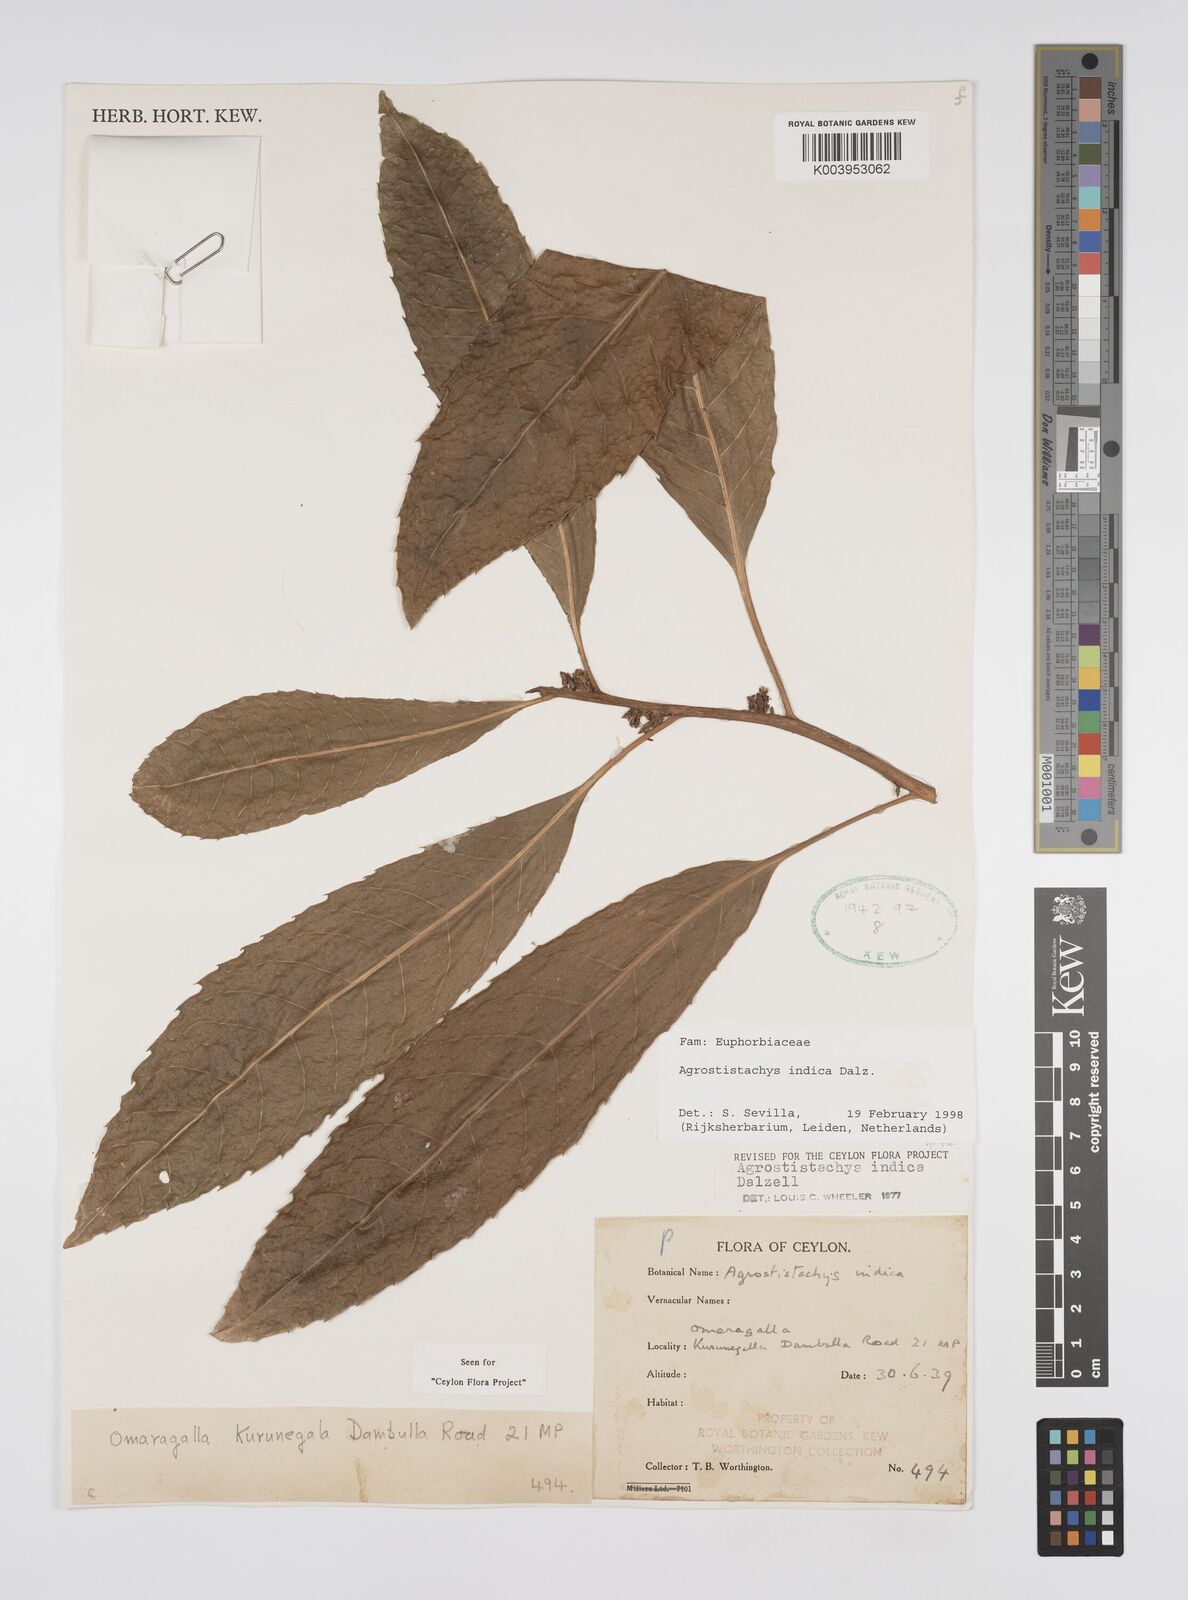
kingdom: Plantae
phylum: Tracheophyta
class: Magnoliopsida
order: Malpighiales
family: Euphorbiaceae
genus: Agrostistachys
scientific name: Agrostistachys indica
